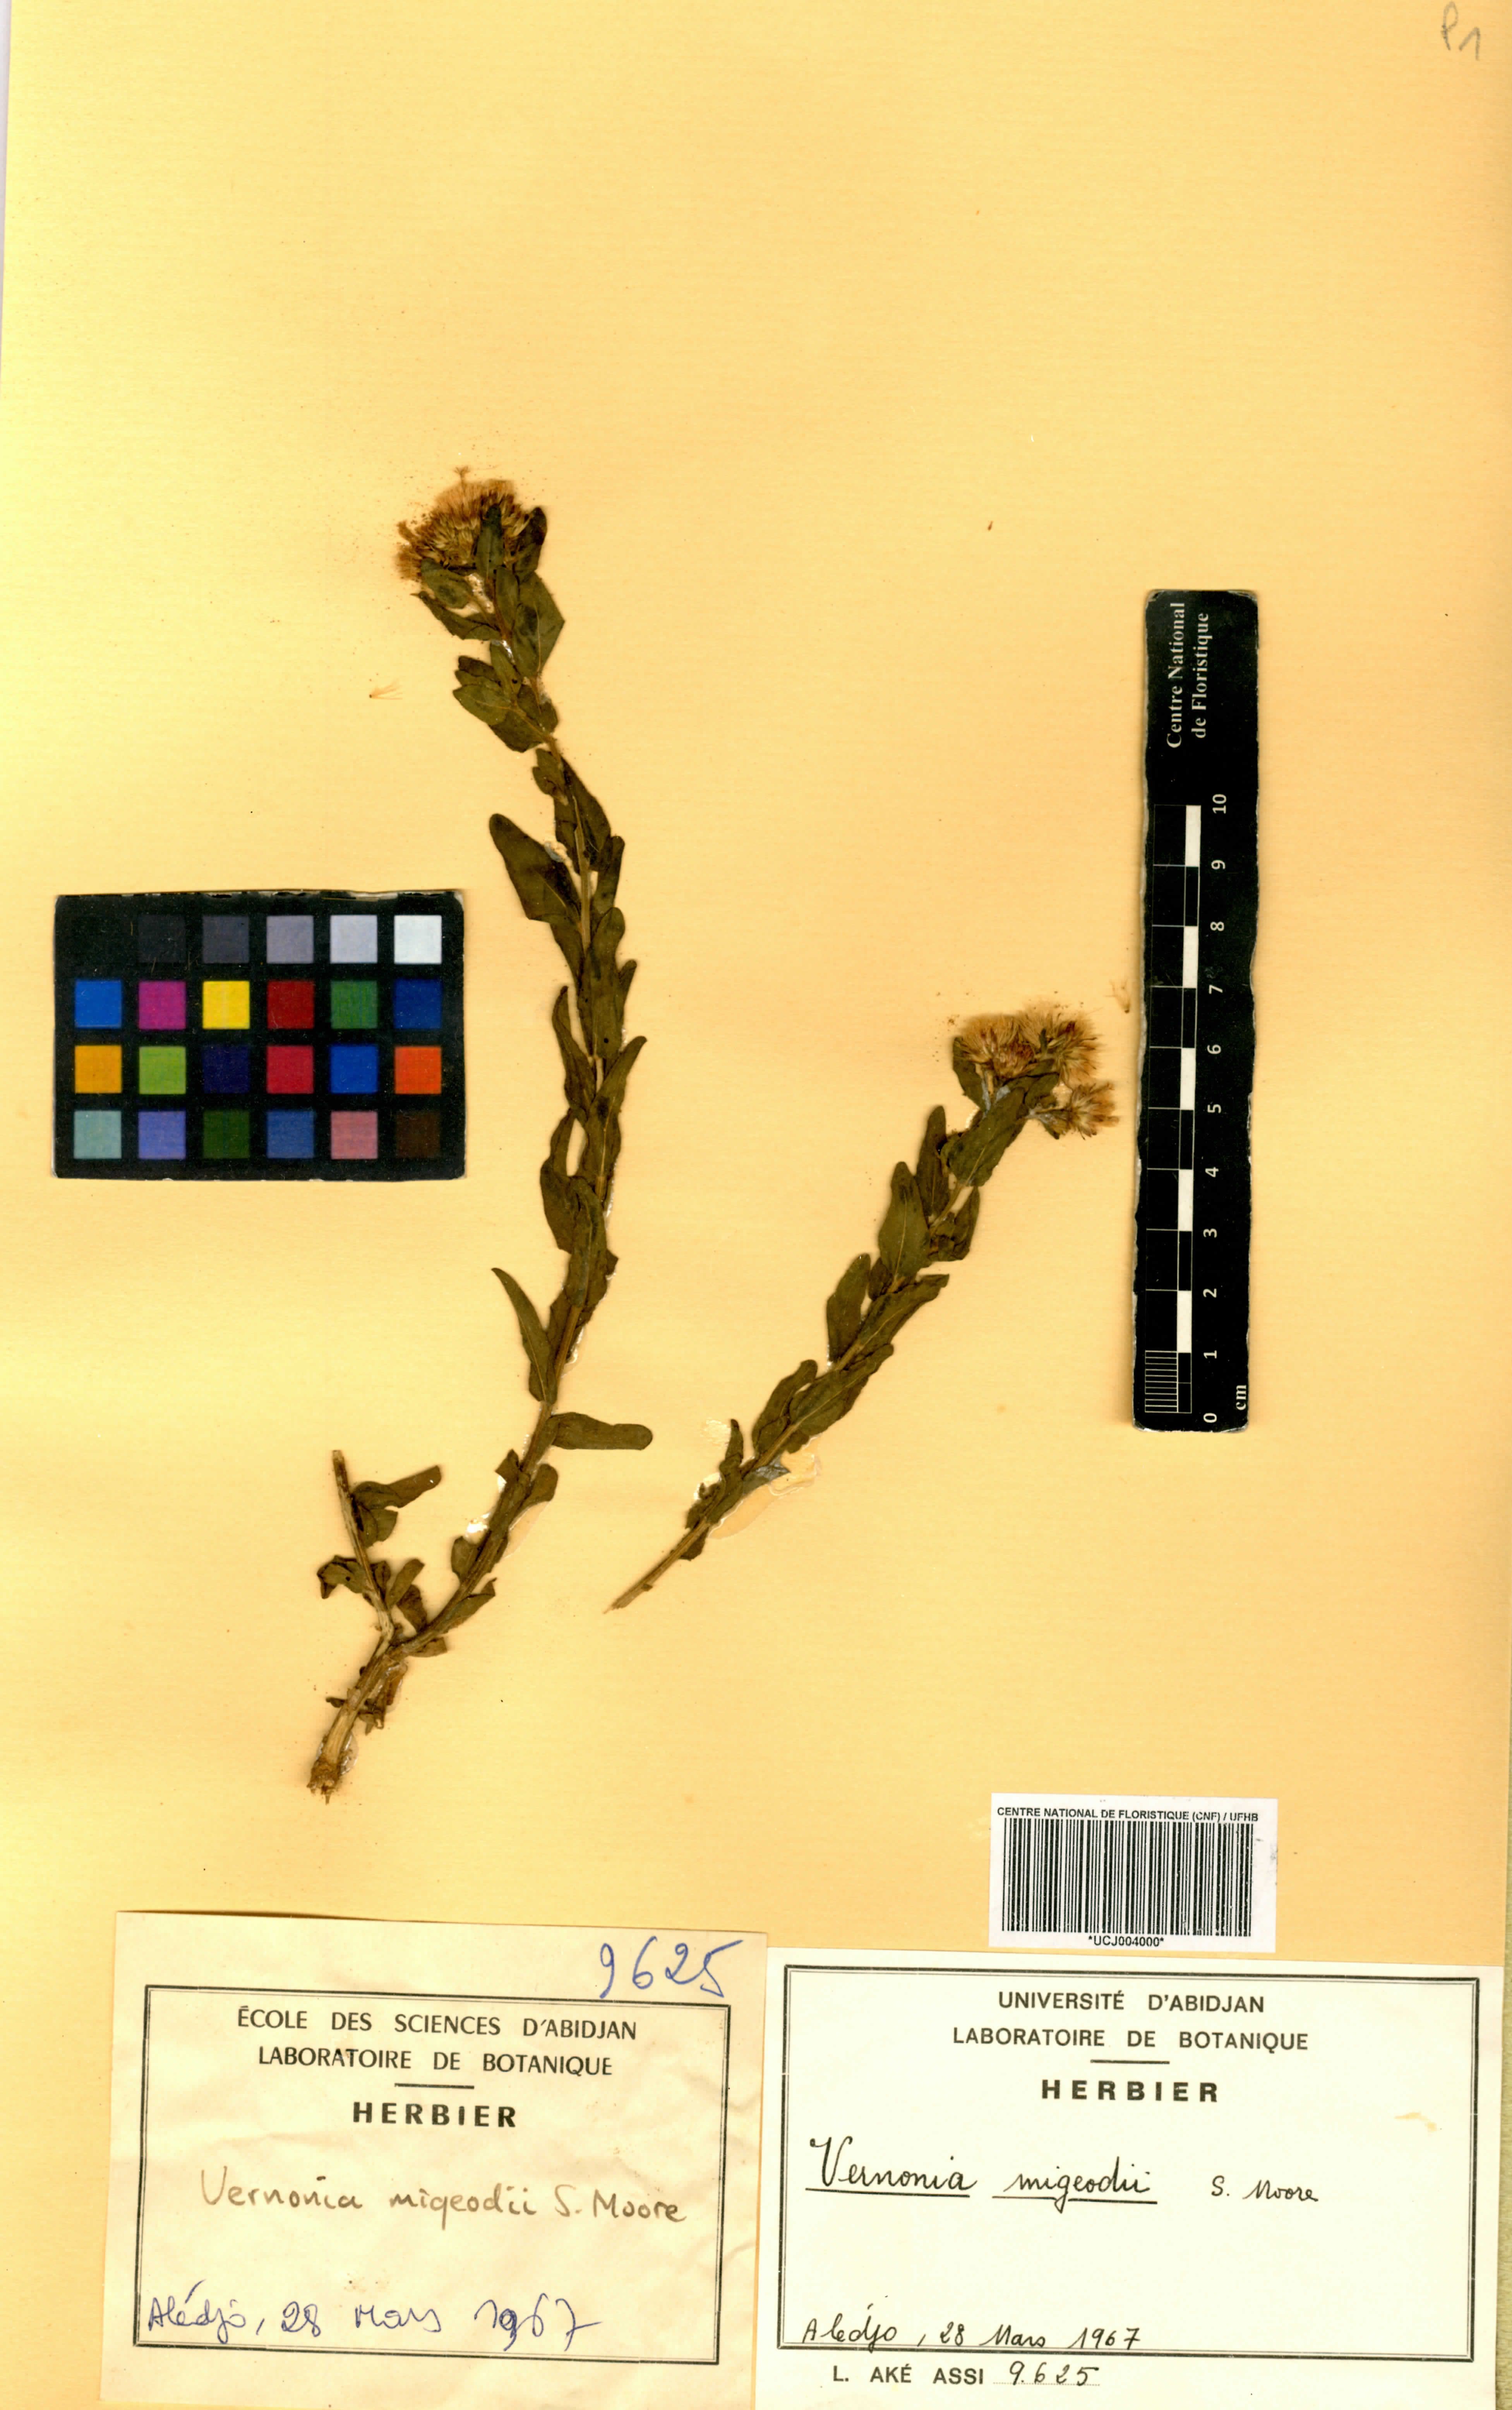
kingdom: Plantae
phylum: Tracheophyta
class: Magnoliopsida
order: Asterales
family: Asteraceae
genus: Vernoniastrum
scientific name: Vernoniastrum migeodii
